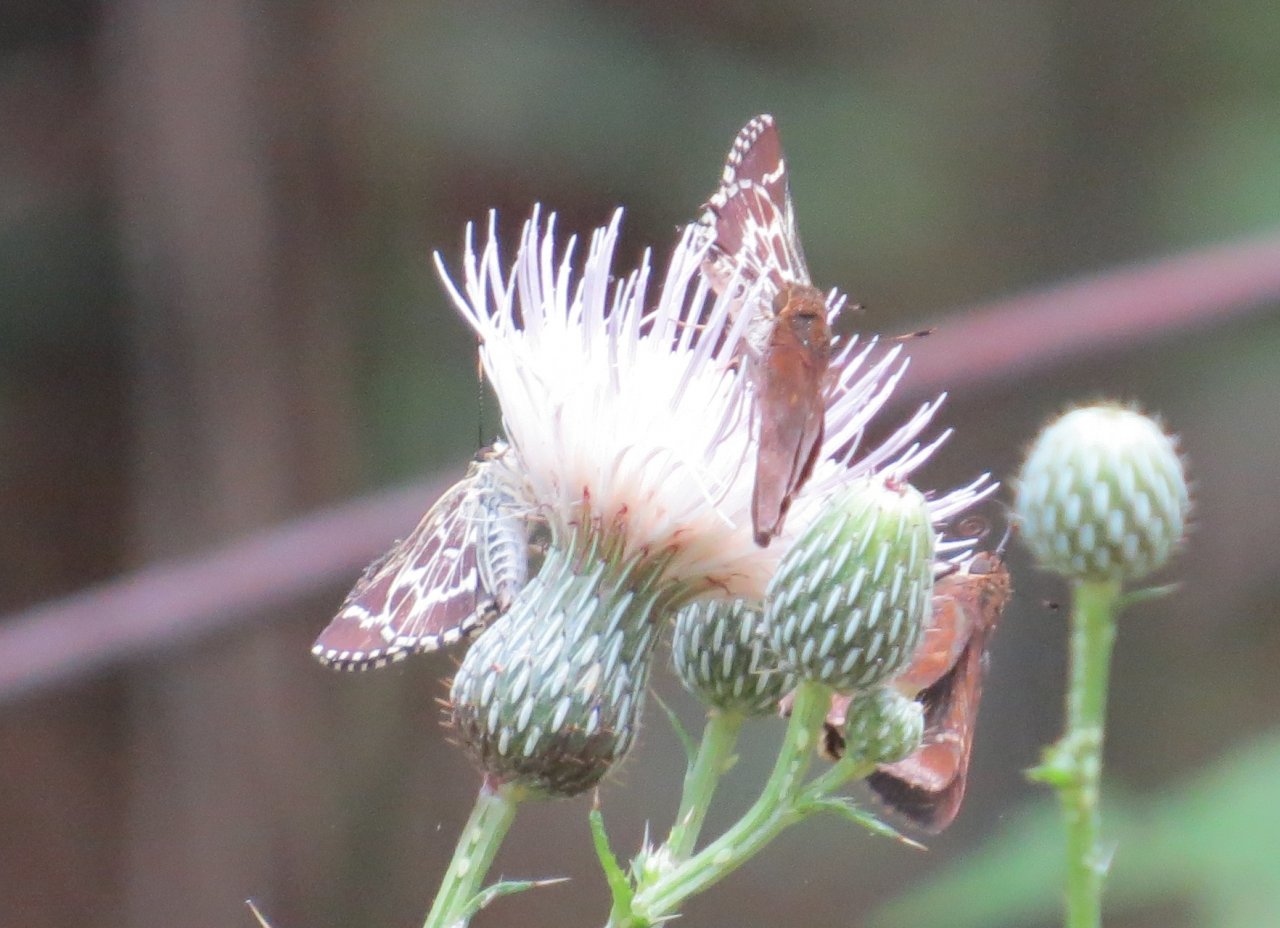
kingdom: Animalia
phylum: Arthropoda
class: Insecta
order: Lepidoptera
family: Hesperiidae
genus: Mastor
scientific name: Mastor aesculapius
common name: Lace-winged Roadside-Skipper
